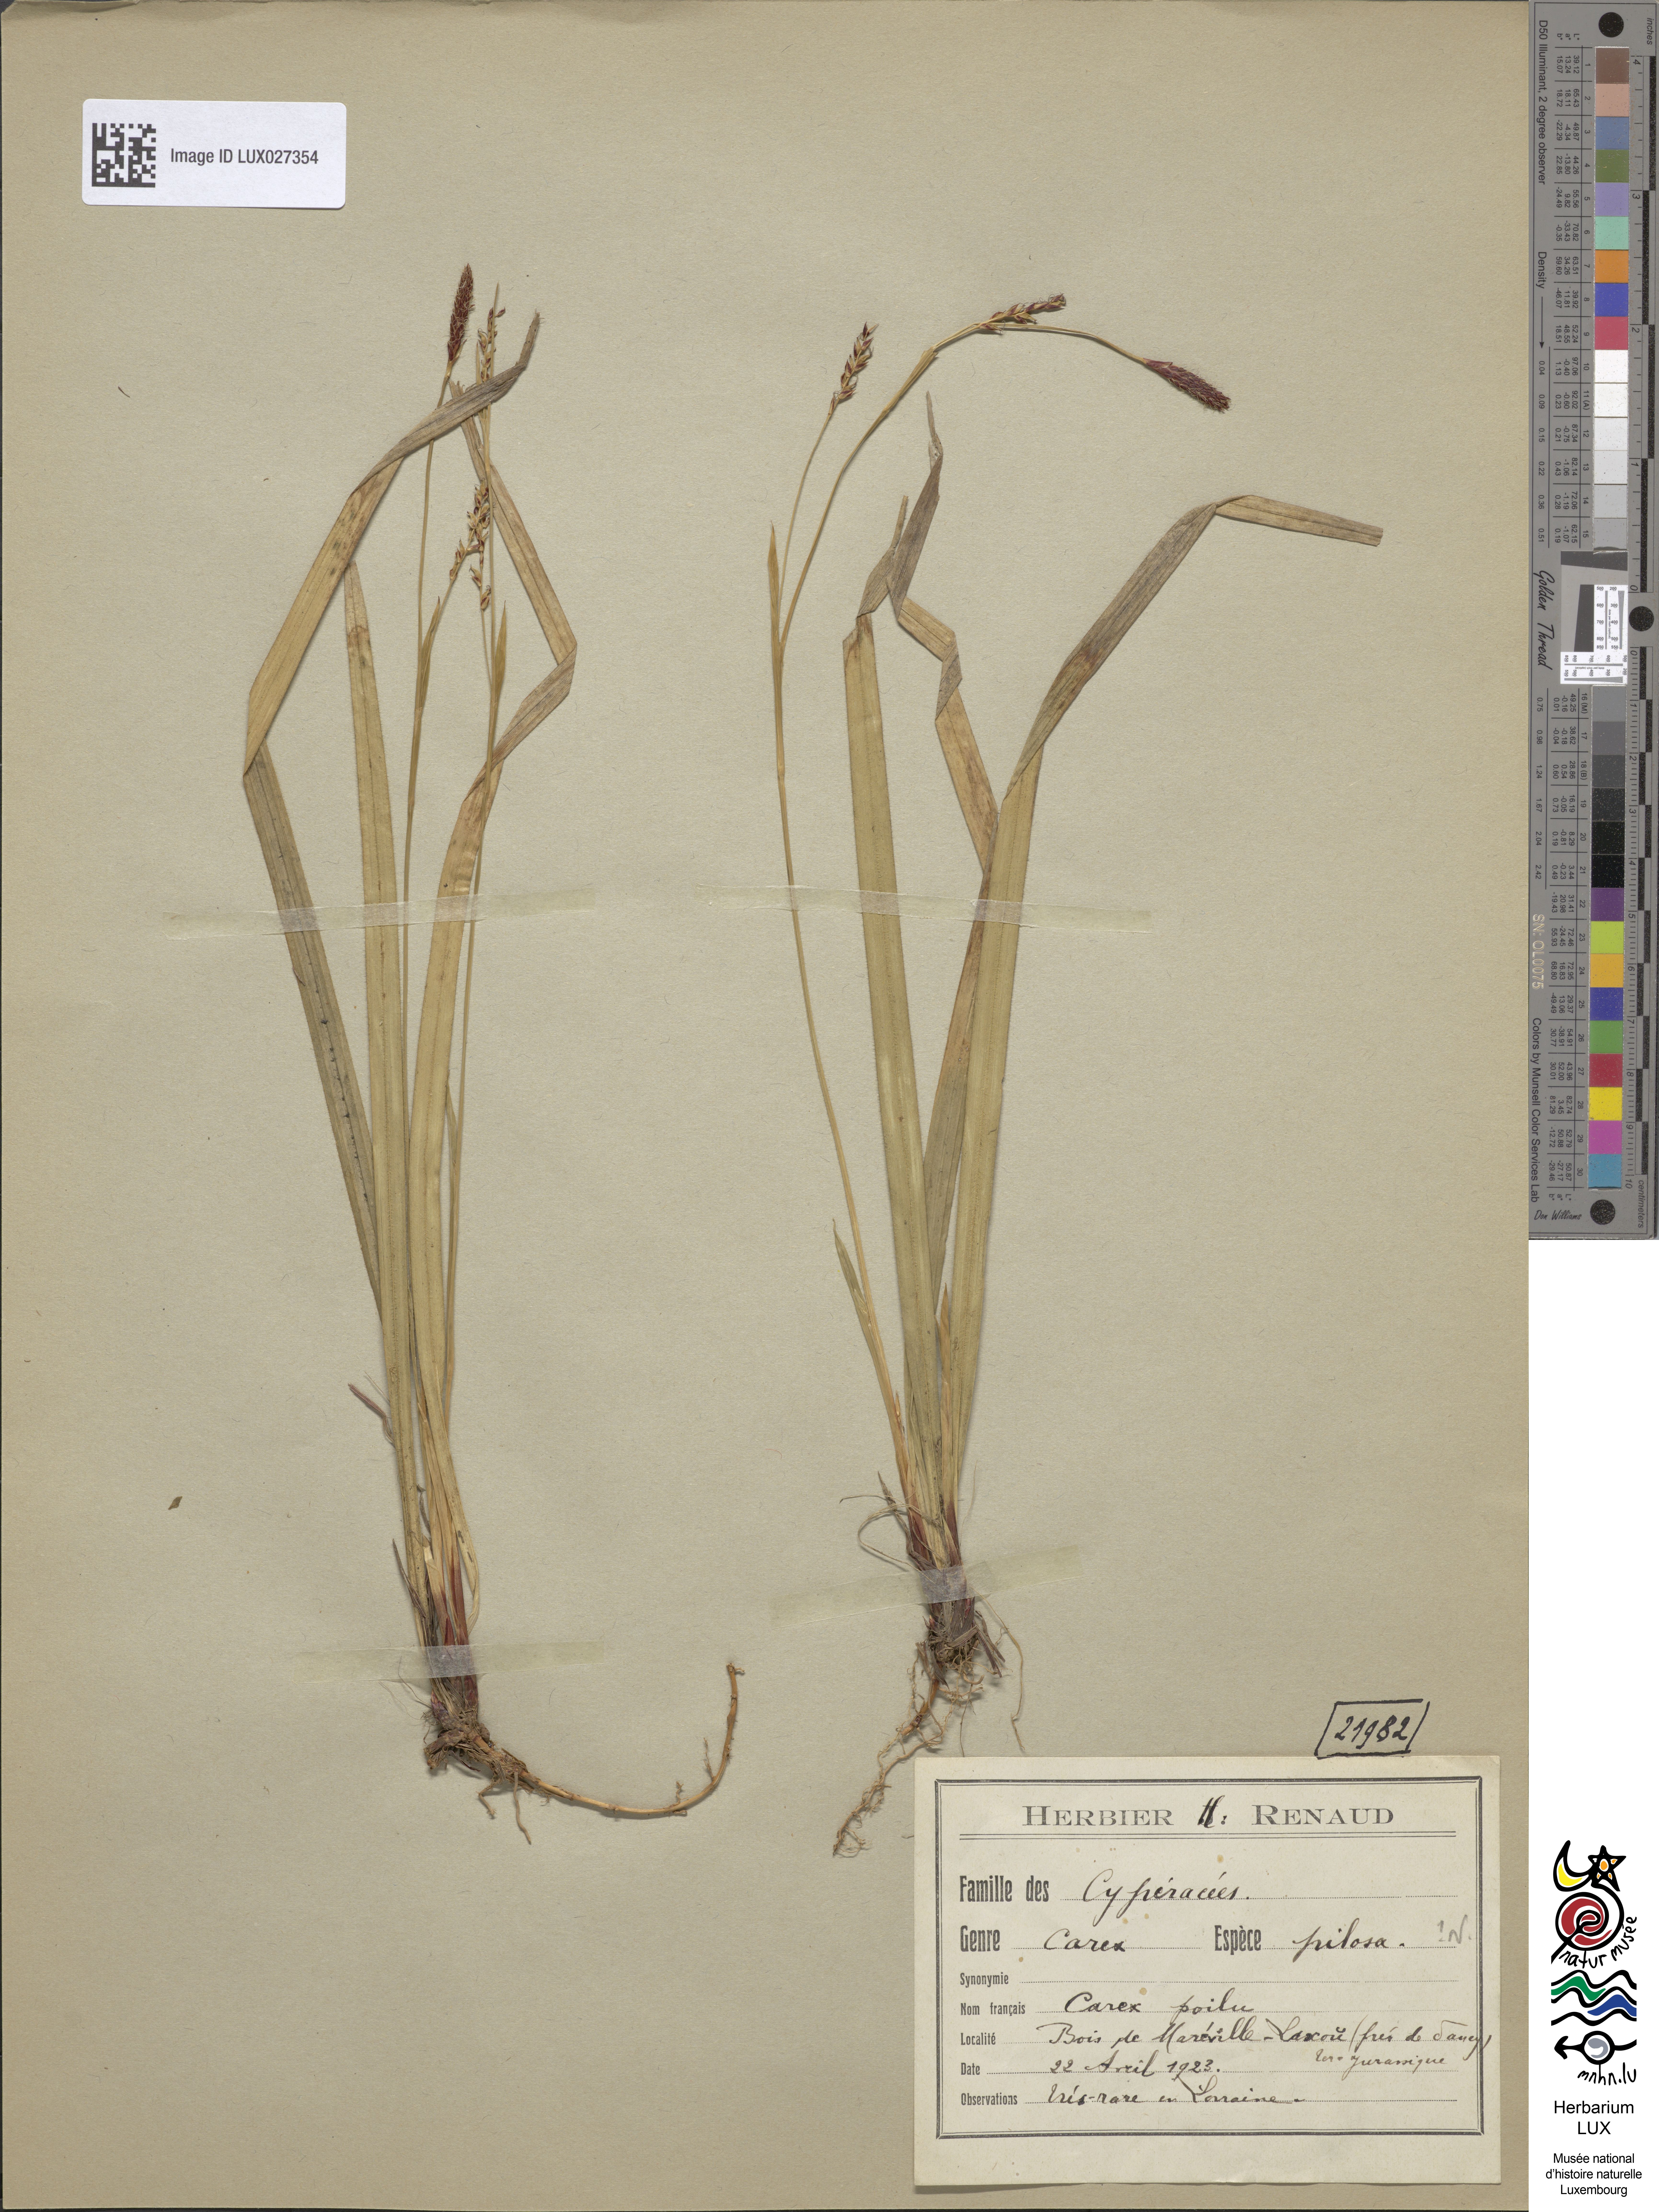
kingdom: Plantae
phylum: Tracheophyta
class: Liliopsida
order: Poales
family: Cyperaceae
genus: Carex
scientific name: Carex pilosa
